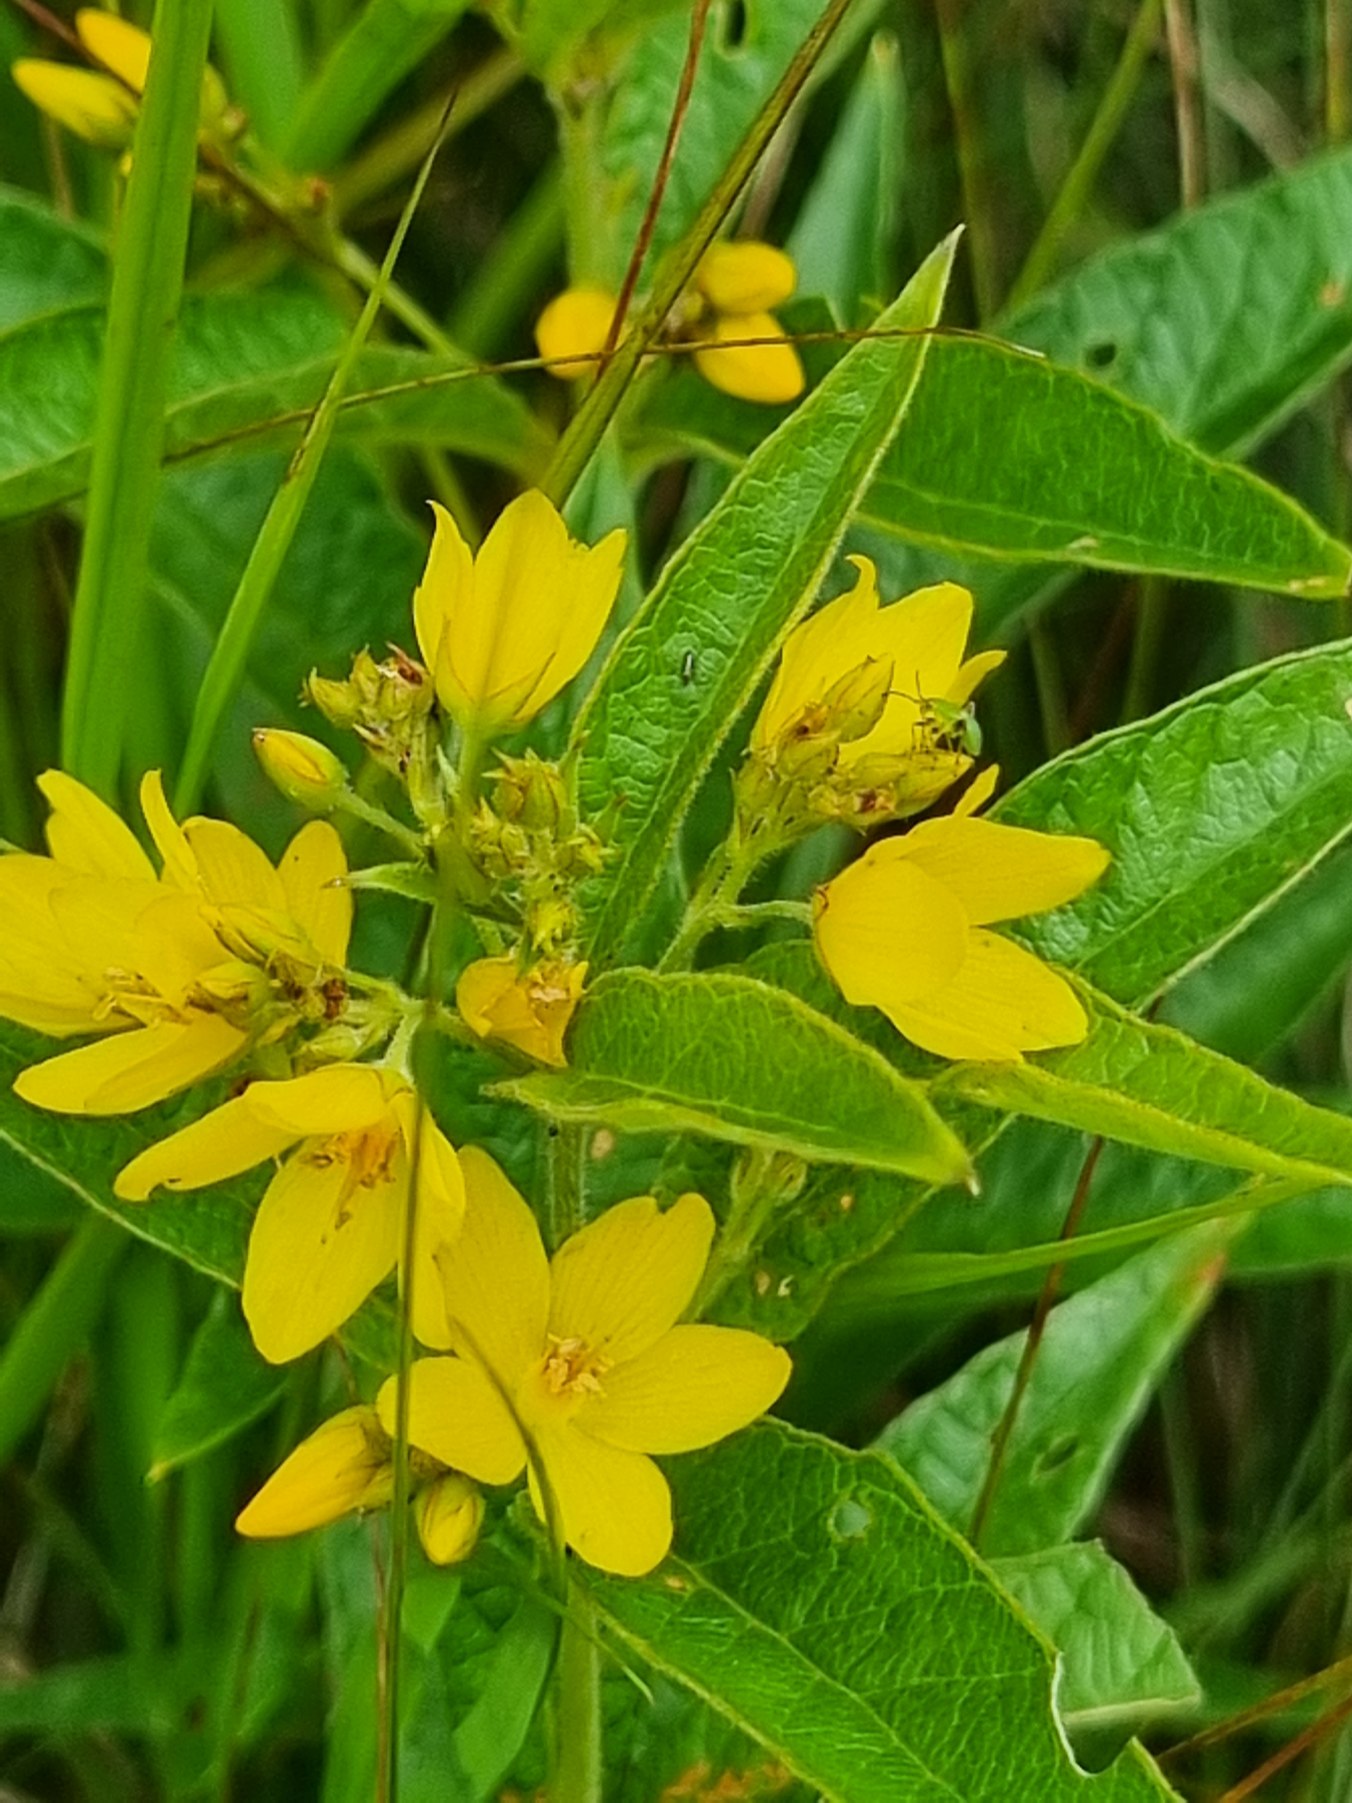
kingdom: Plantae
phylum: Tracheophyta
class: Magnoliopsida
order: Ericales
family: Primulaceae
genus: Lysimachia
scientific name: Lysimachia vulgaris
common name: Almindelig fredløs
